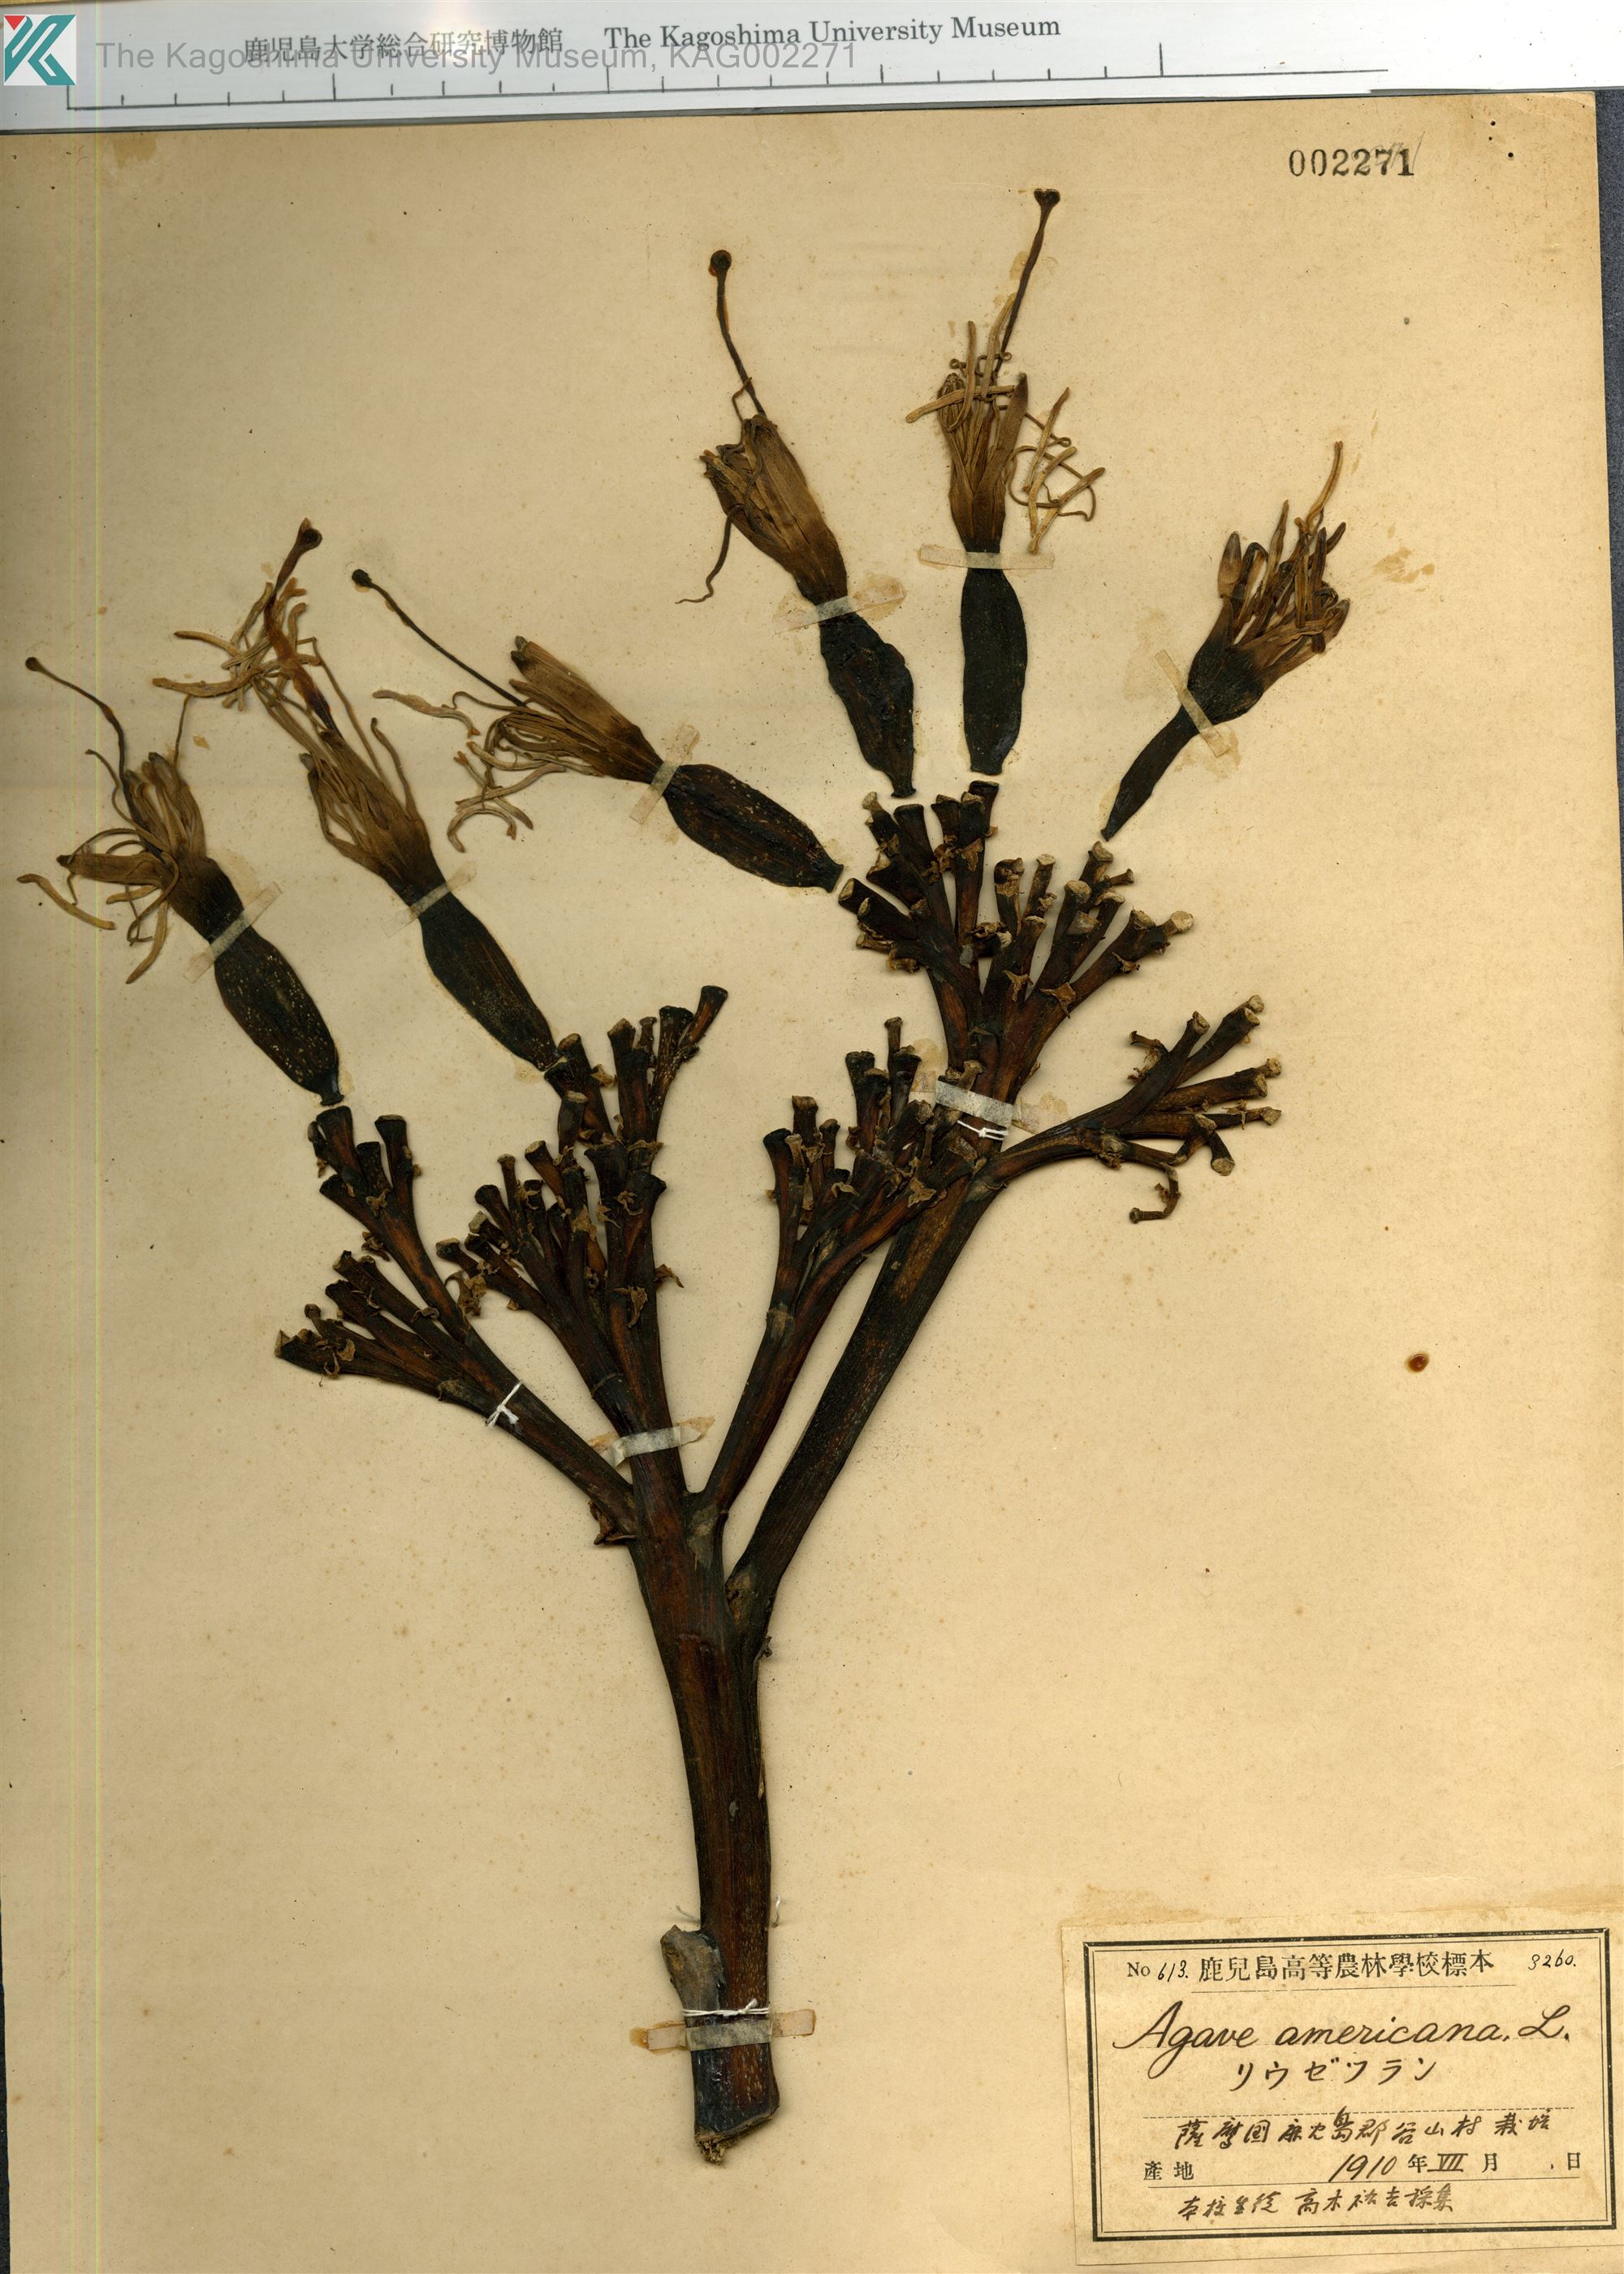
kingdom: Plantae
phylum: Tracheophyta
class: Liliopsida
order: Asparagales
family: Asparagaceae
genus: Agave
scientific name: Agave americana
